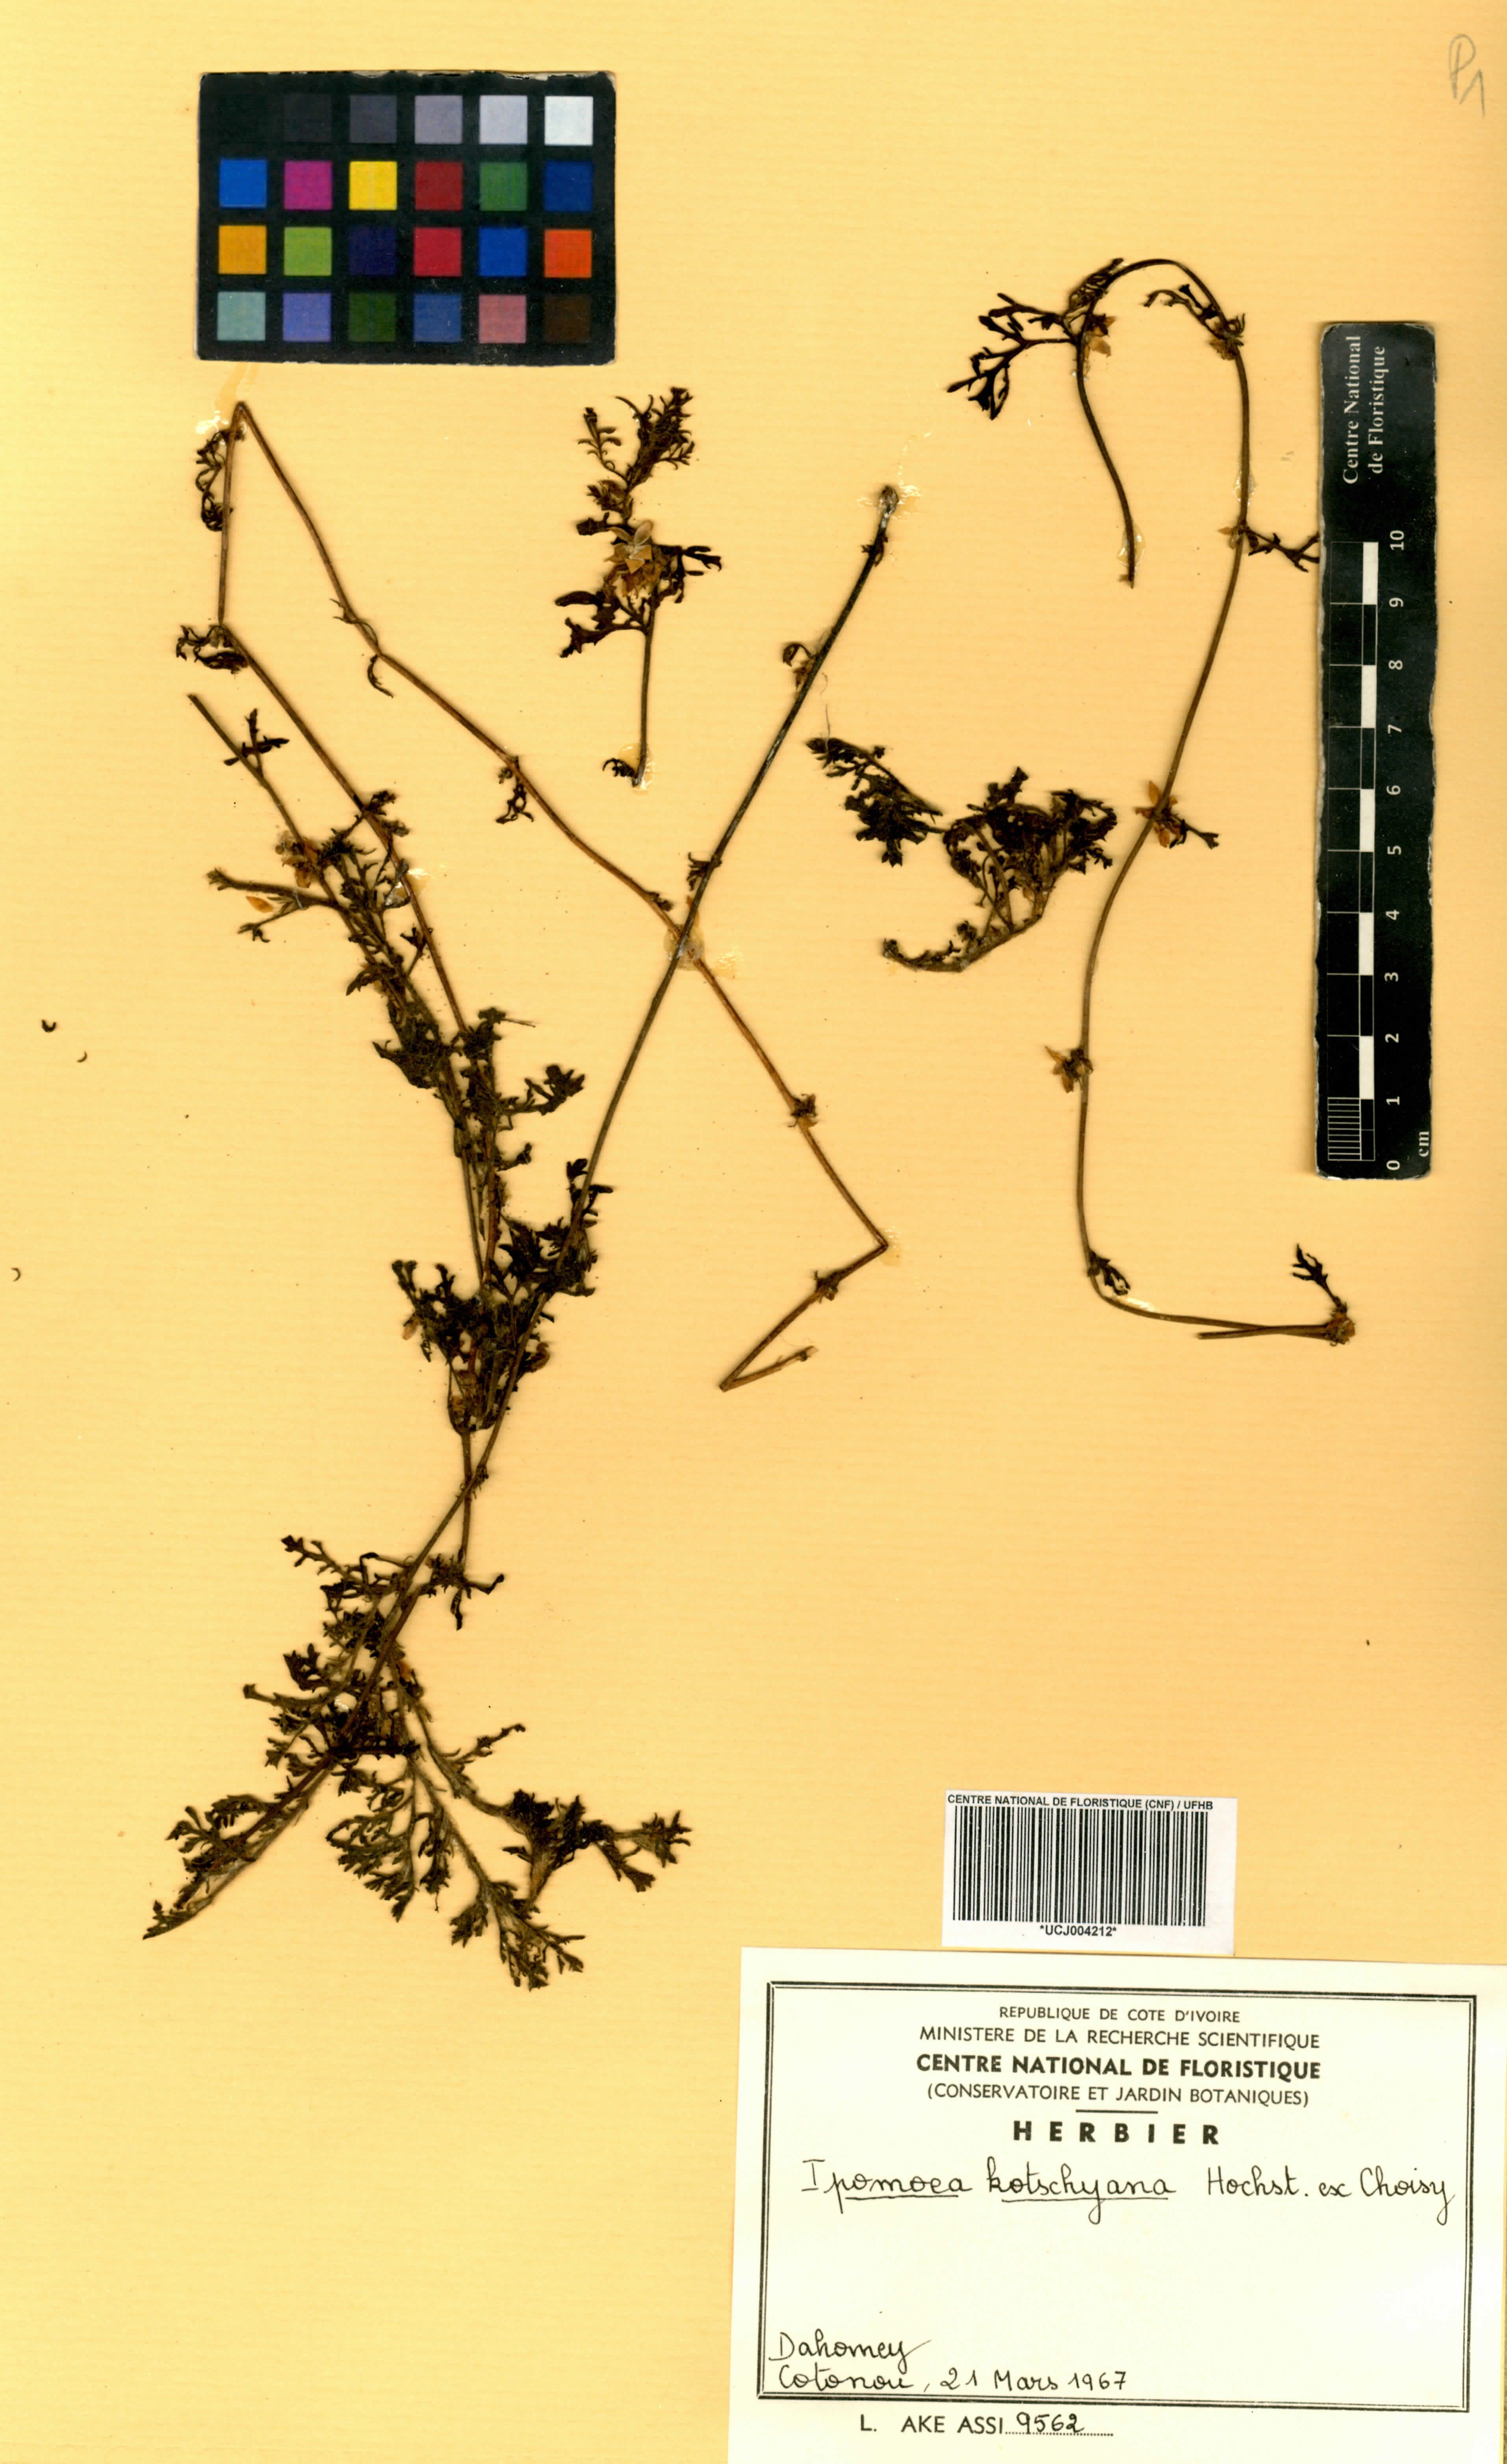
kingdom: Plantae
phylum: Tracheophyta
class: Magnoliopsida
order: Solanales
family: Convolvulaceae
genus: Ipomoea
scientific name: Ipomoea kotschyana
